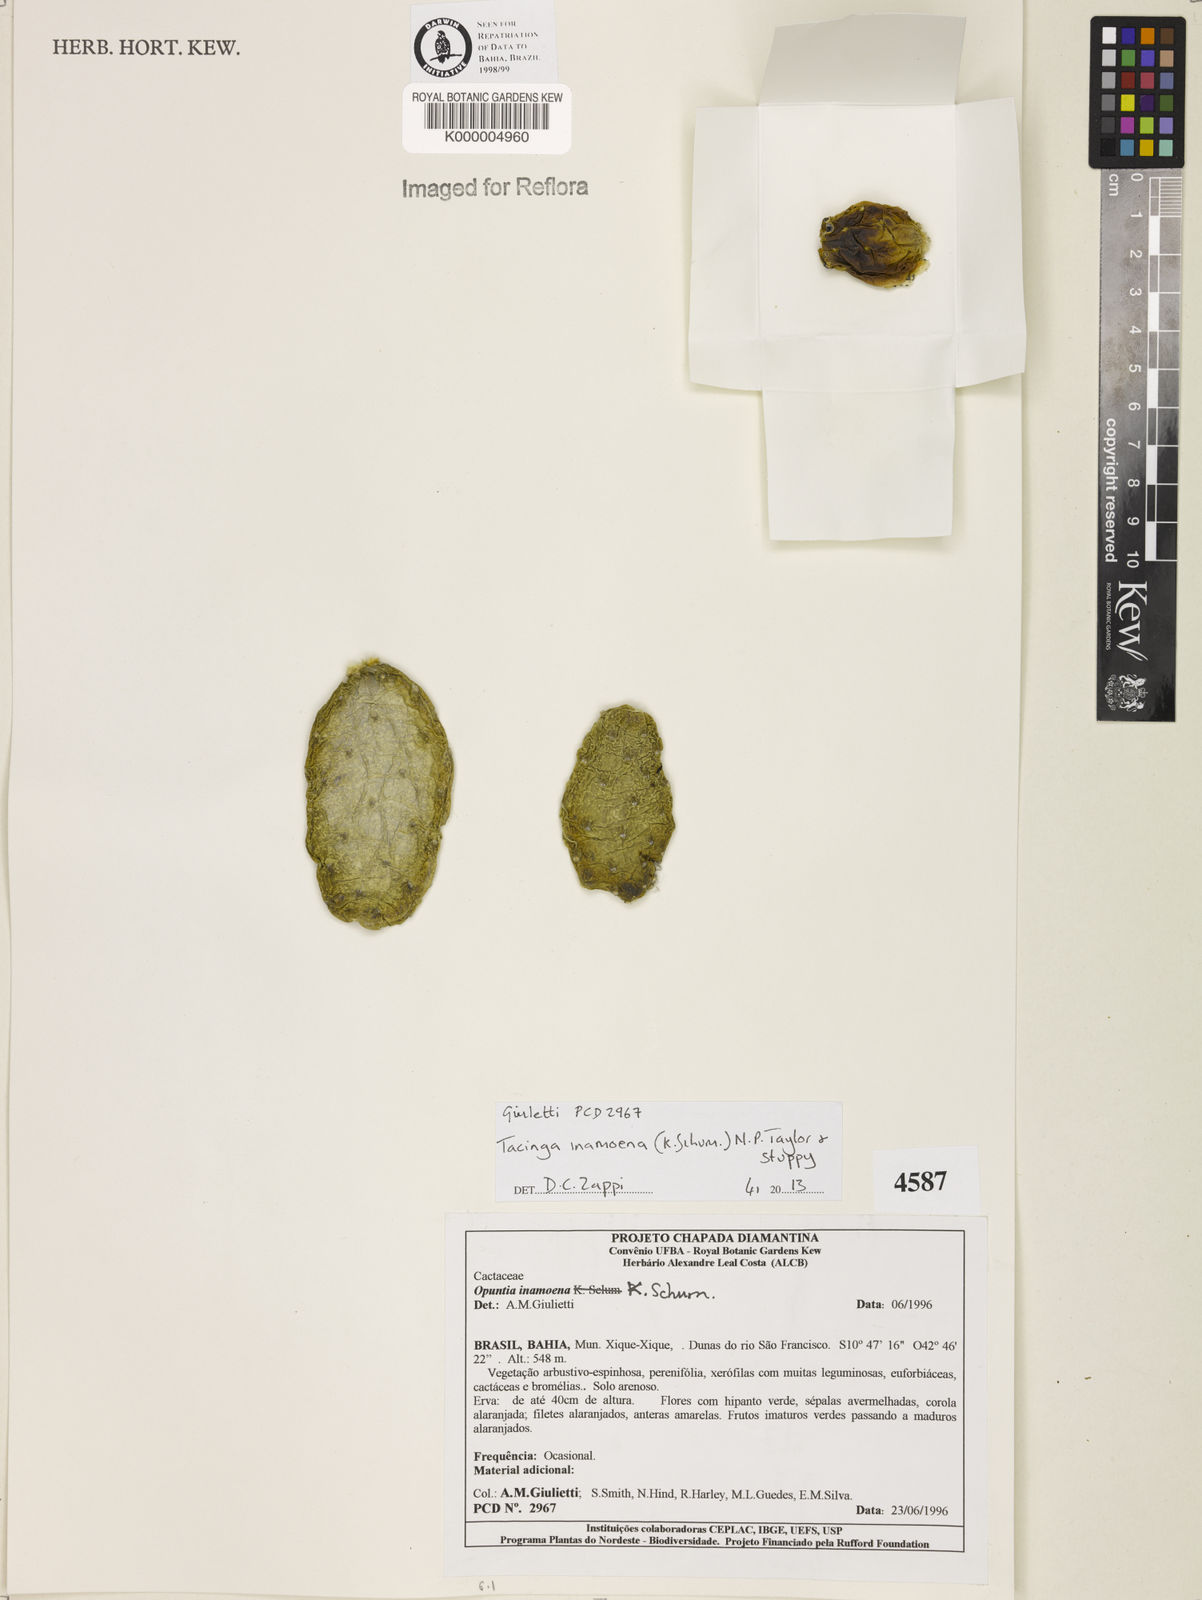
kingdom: Plantae
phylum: Tracheophyta
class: Magnoliopsida
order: Caryophyllales
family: Cactaceae
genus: Tacinga
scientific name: Tacinga inamoena
